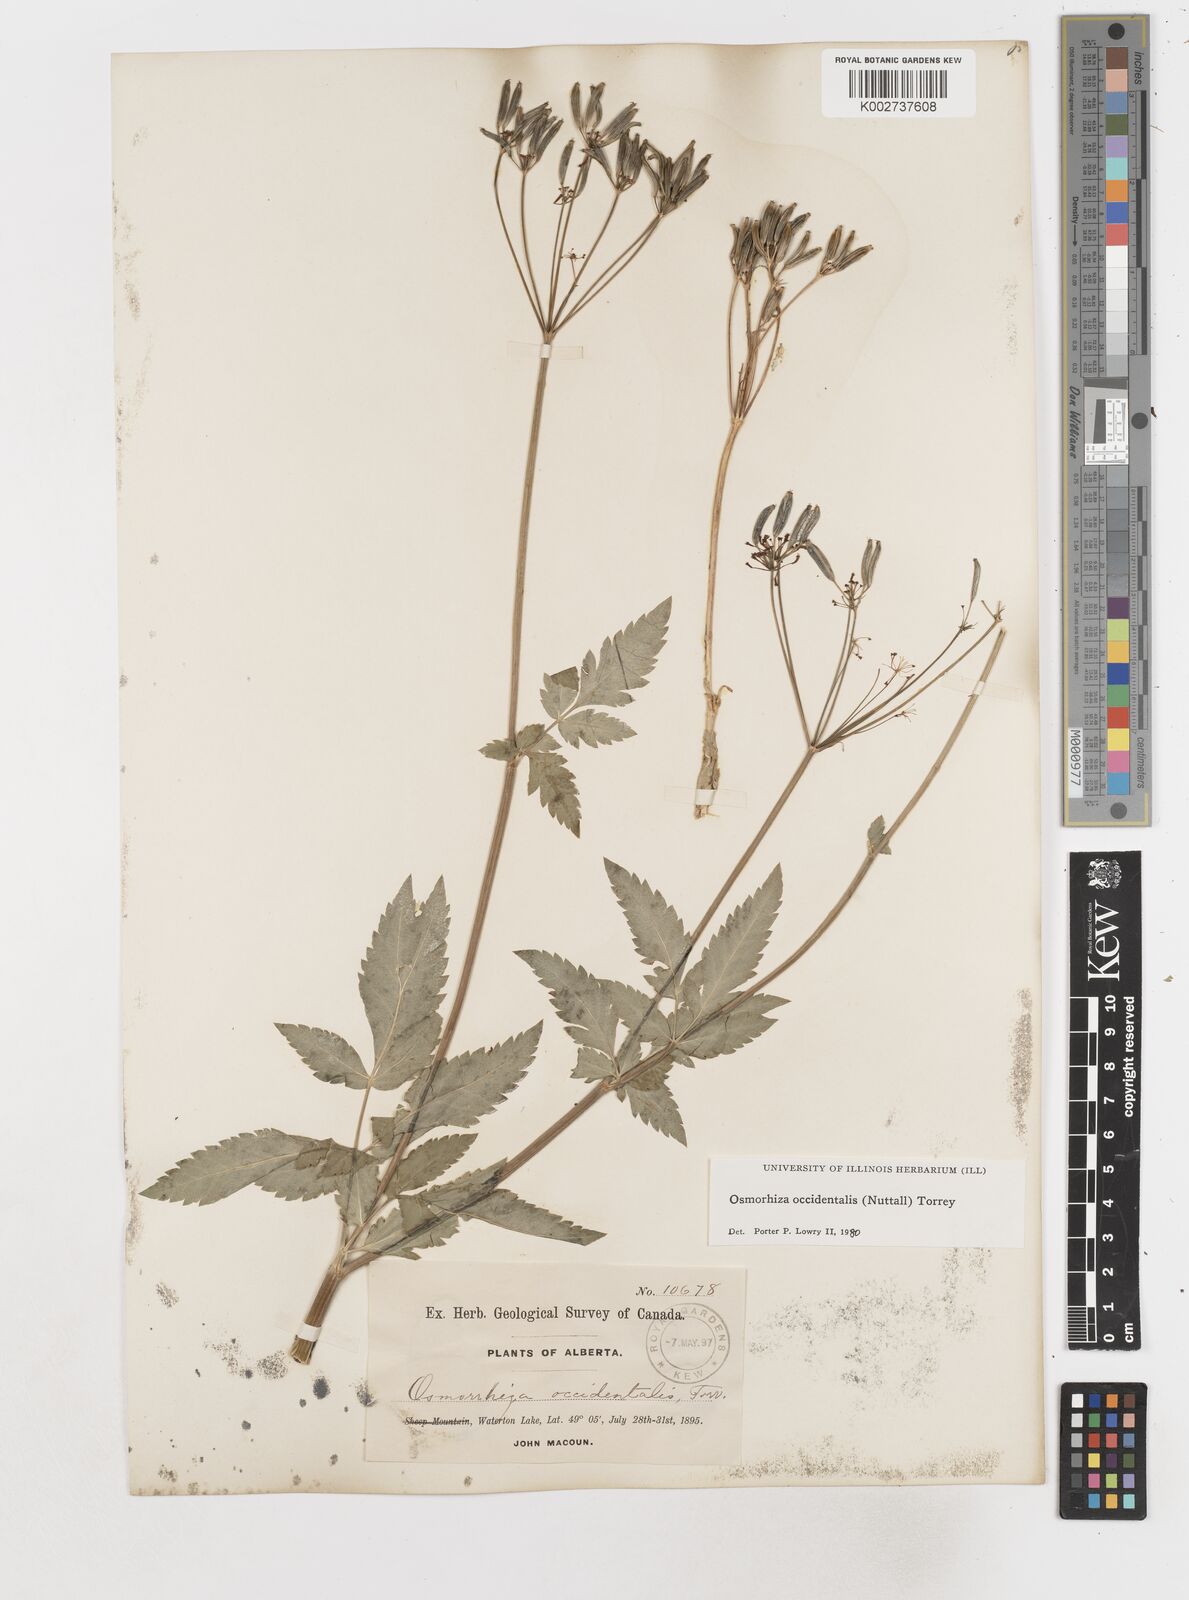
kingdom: Plantae
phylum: Tracheophyta
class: Magnoliopsida
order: Apiales
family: Apiaceae
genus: Osmorhiza
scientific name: Osmorhiza occidentalis
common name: Western sweet cicely
